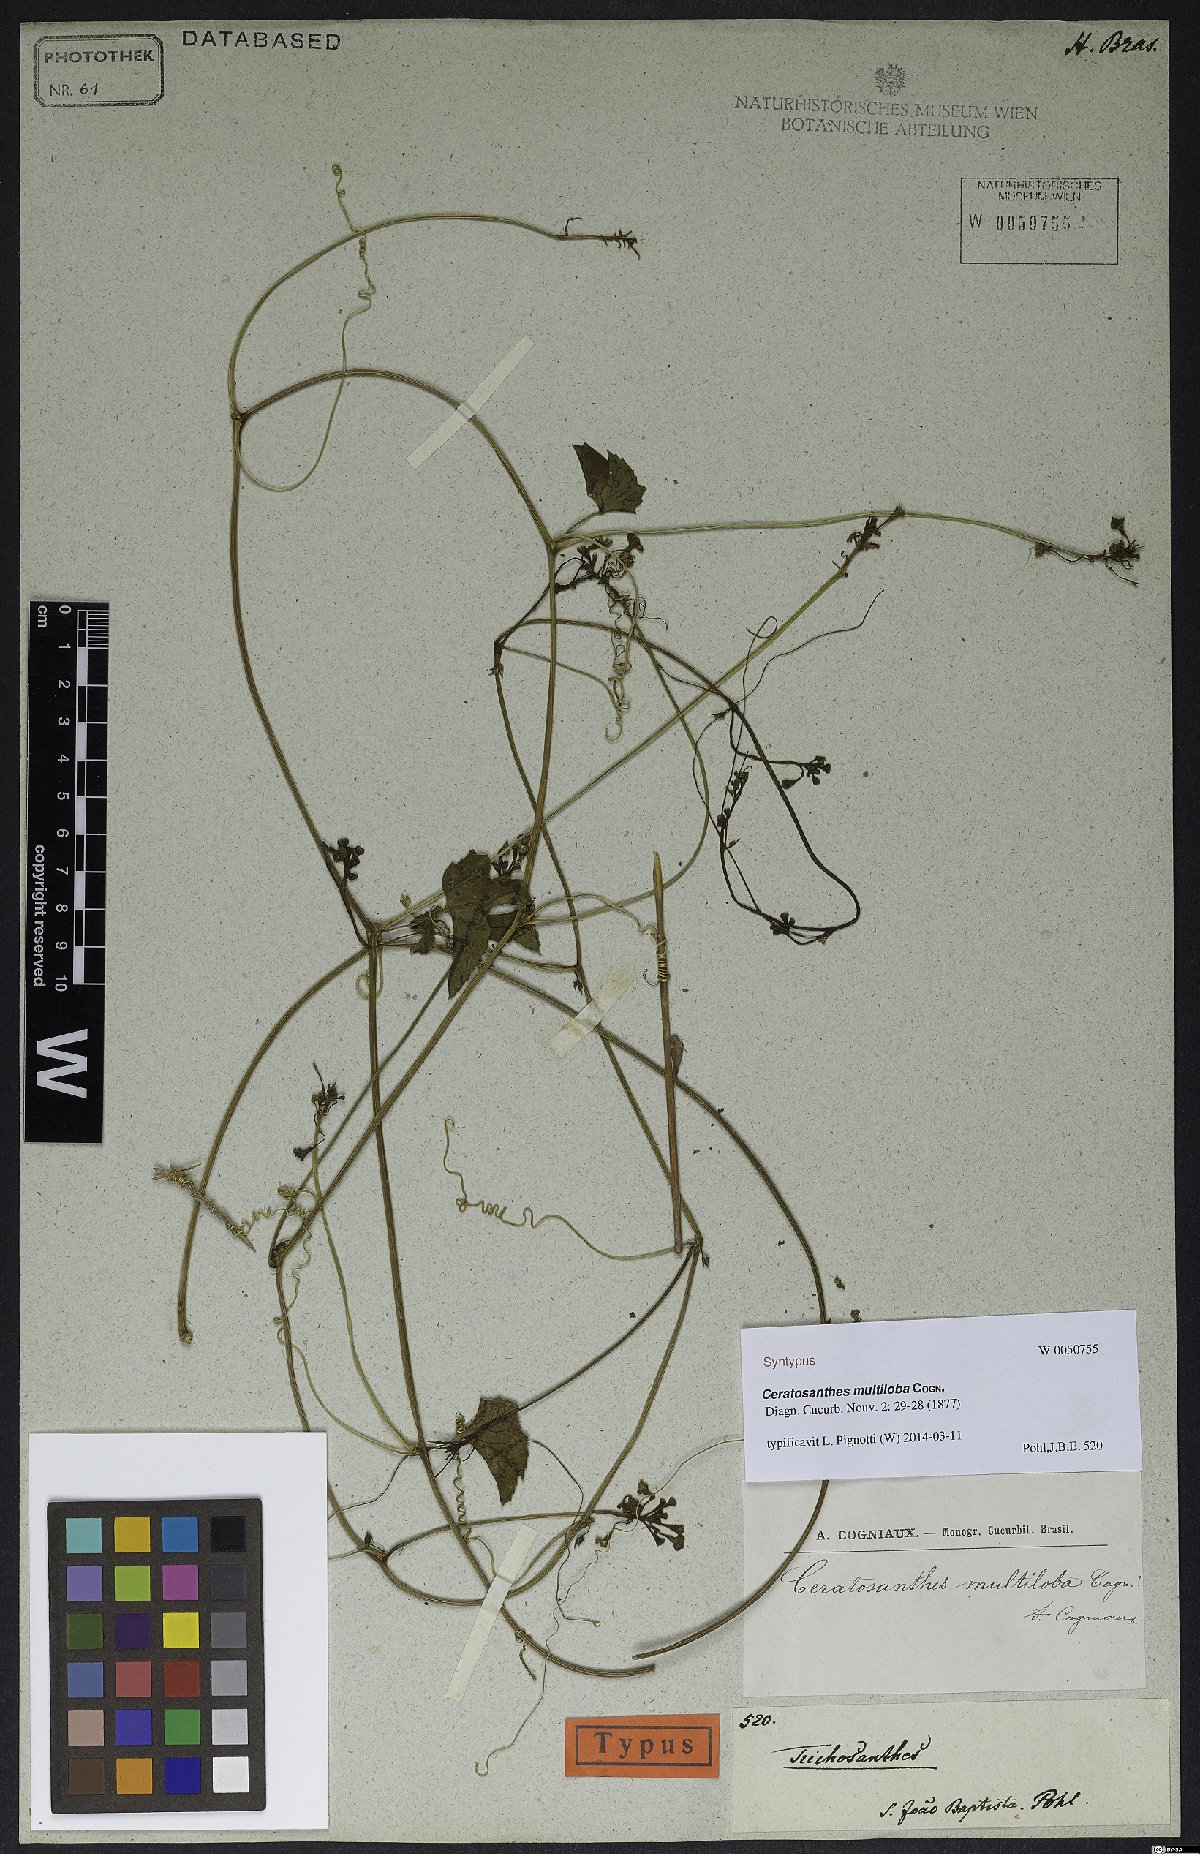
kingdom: Plantae
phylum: Tracheophyta
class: Magnoliopsida
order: Cucurbitales
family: Cucurbitaceae
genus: Ceratosanthes
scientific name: Ceratosanthes multiloba
